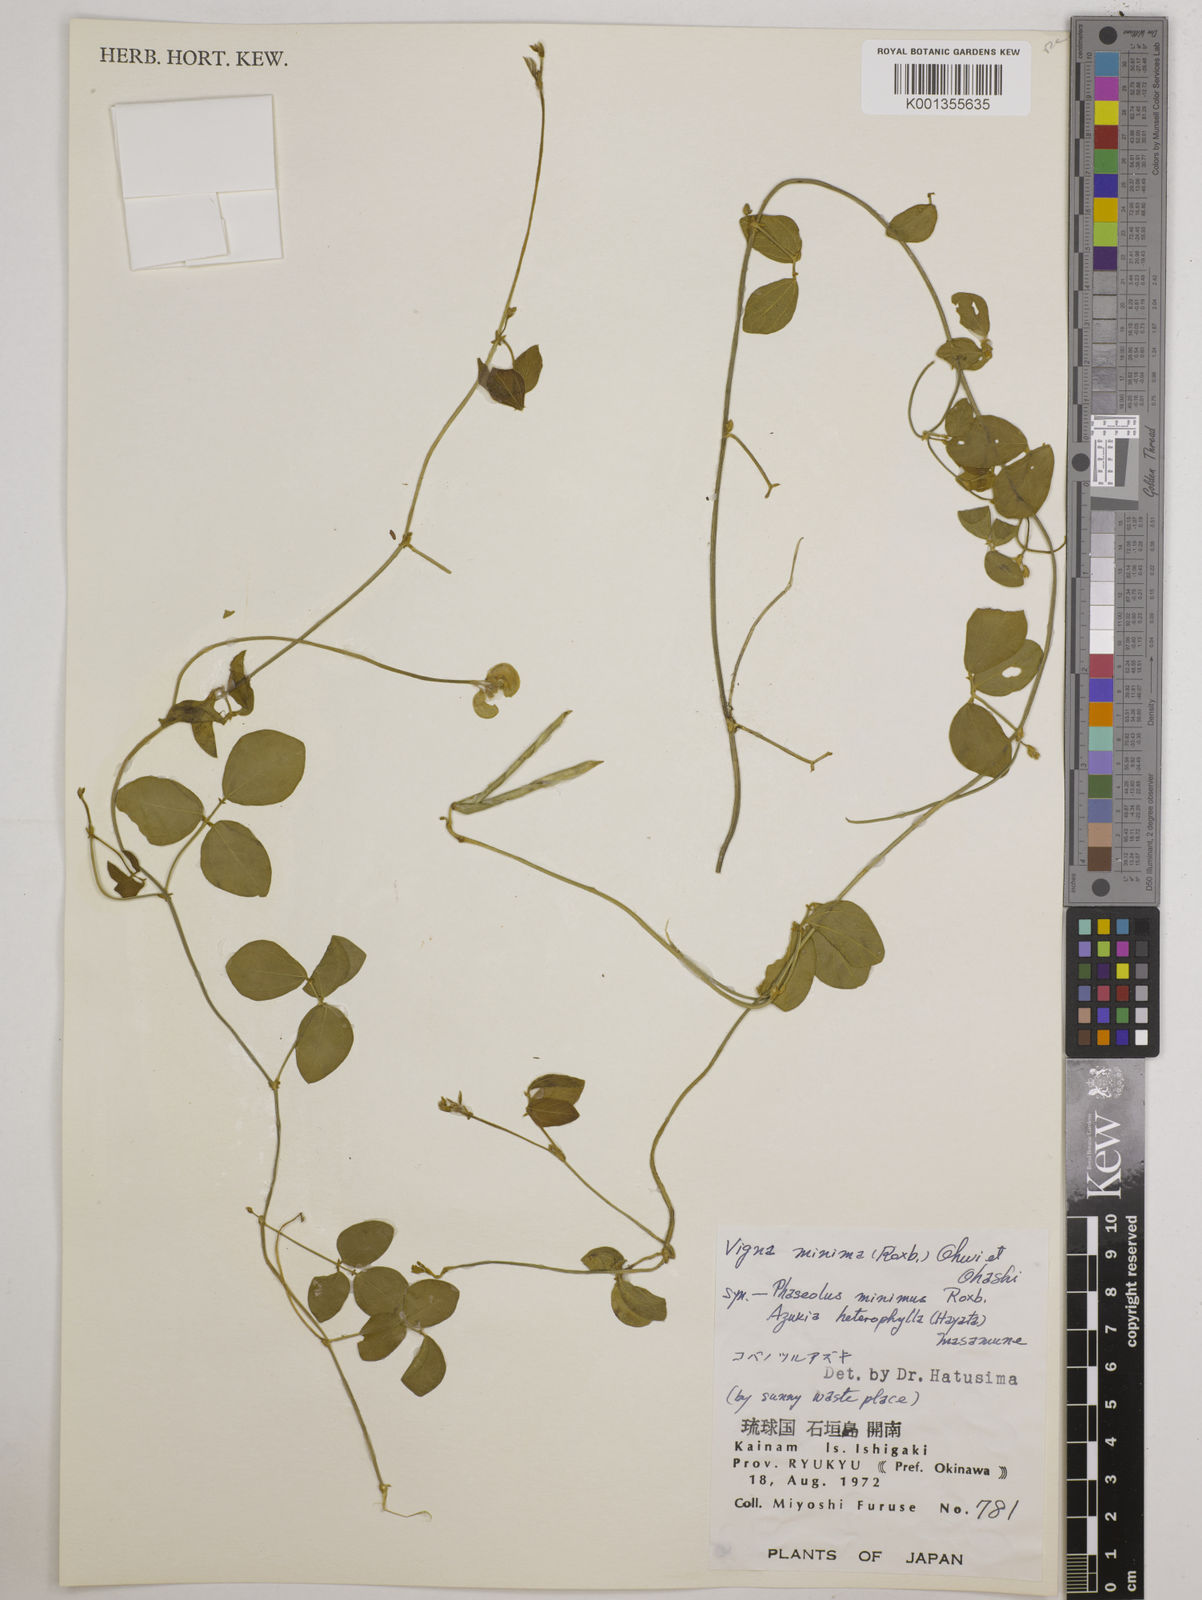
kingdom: Plantae
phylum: Tracheophyta
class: Magnoliopsida
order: Fabales
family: Fabaceae
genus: Vigna
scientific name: Vigna minima
